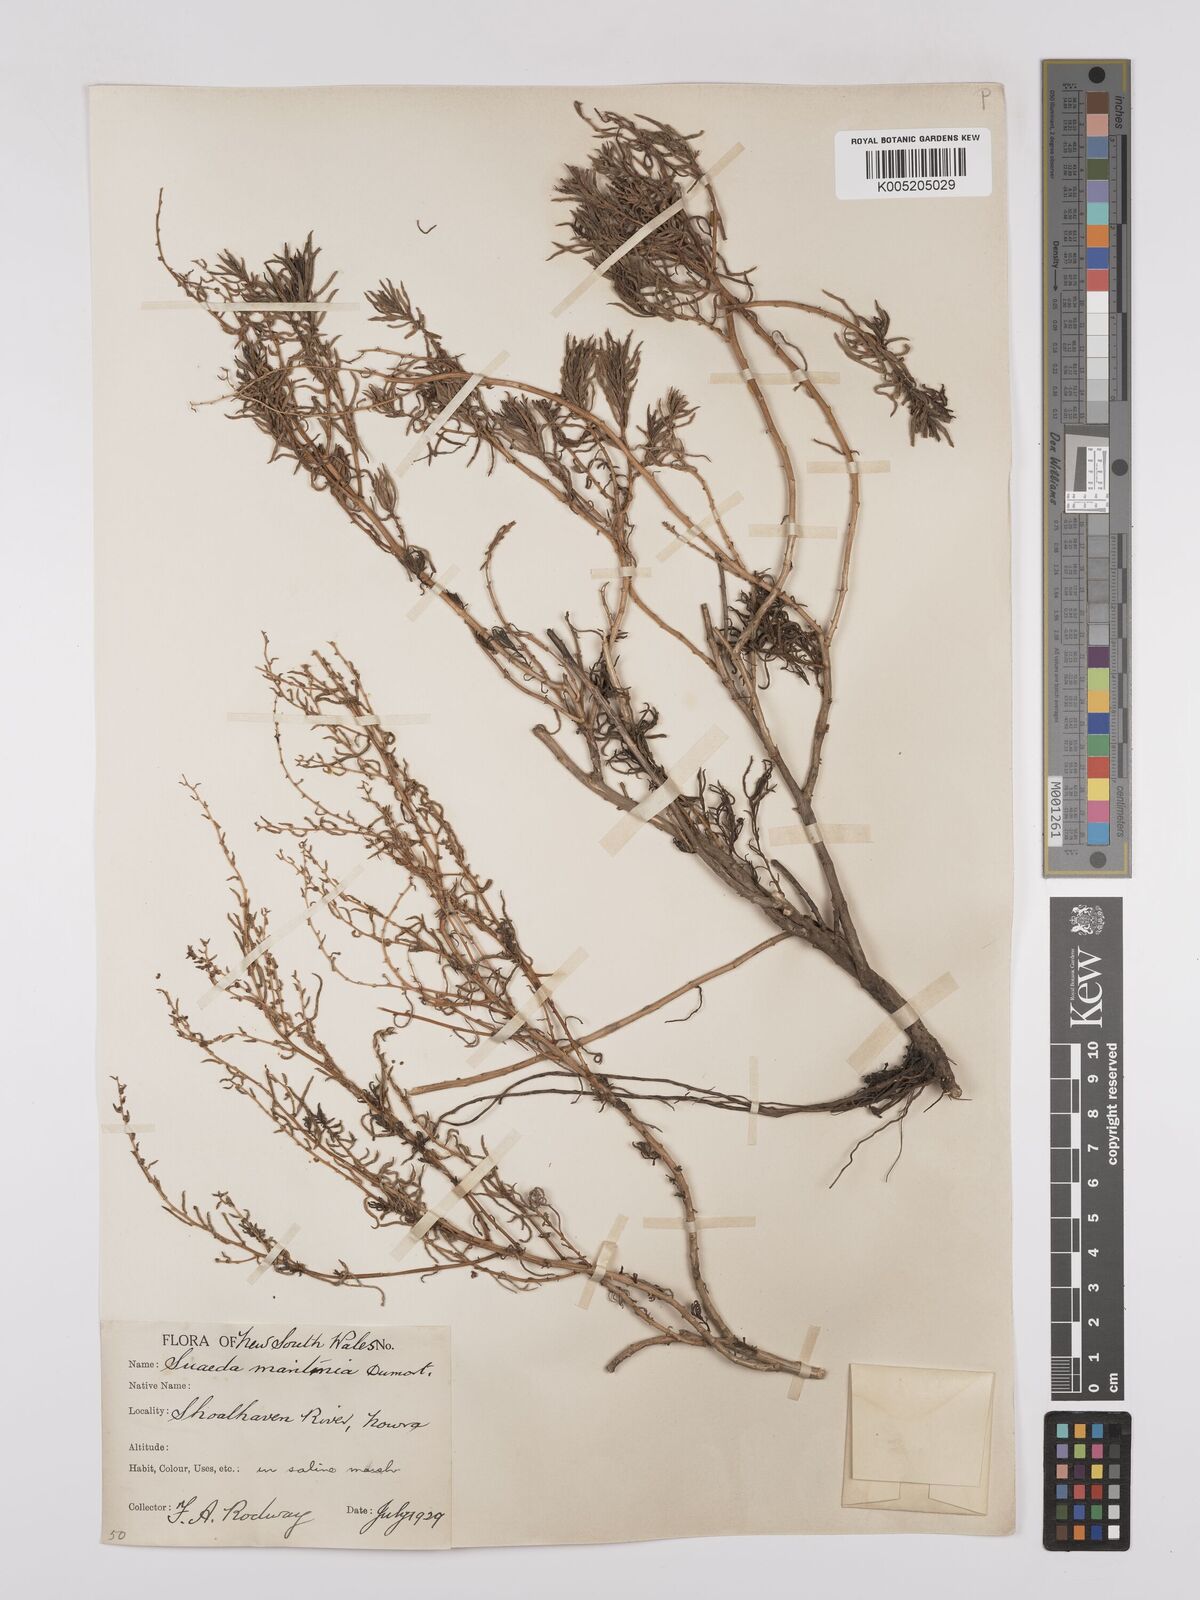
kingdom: Plantae
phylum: Tracheophyta
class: Magnoliopsida
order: Caryophyllales
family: Amaranthaceae
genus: Suaeda
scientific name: Suaeda australis
